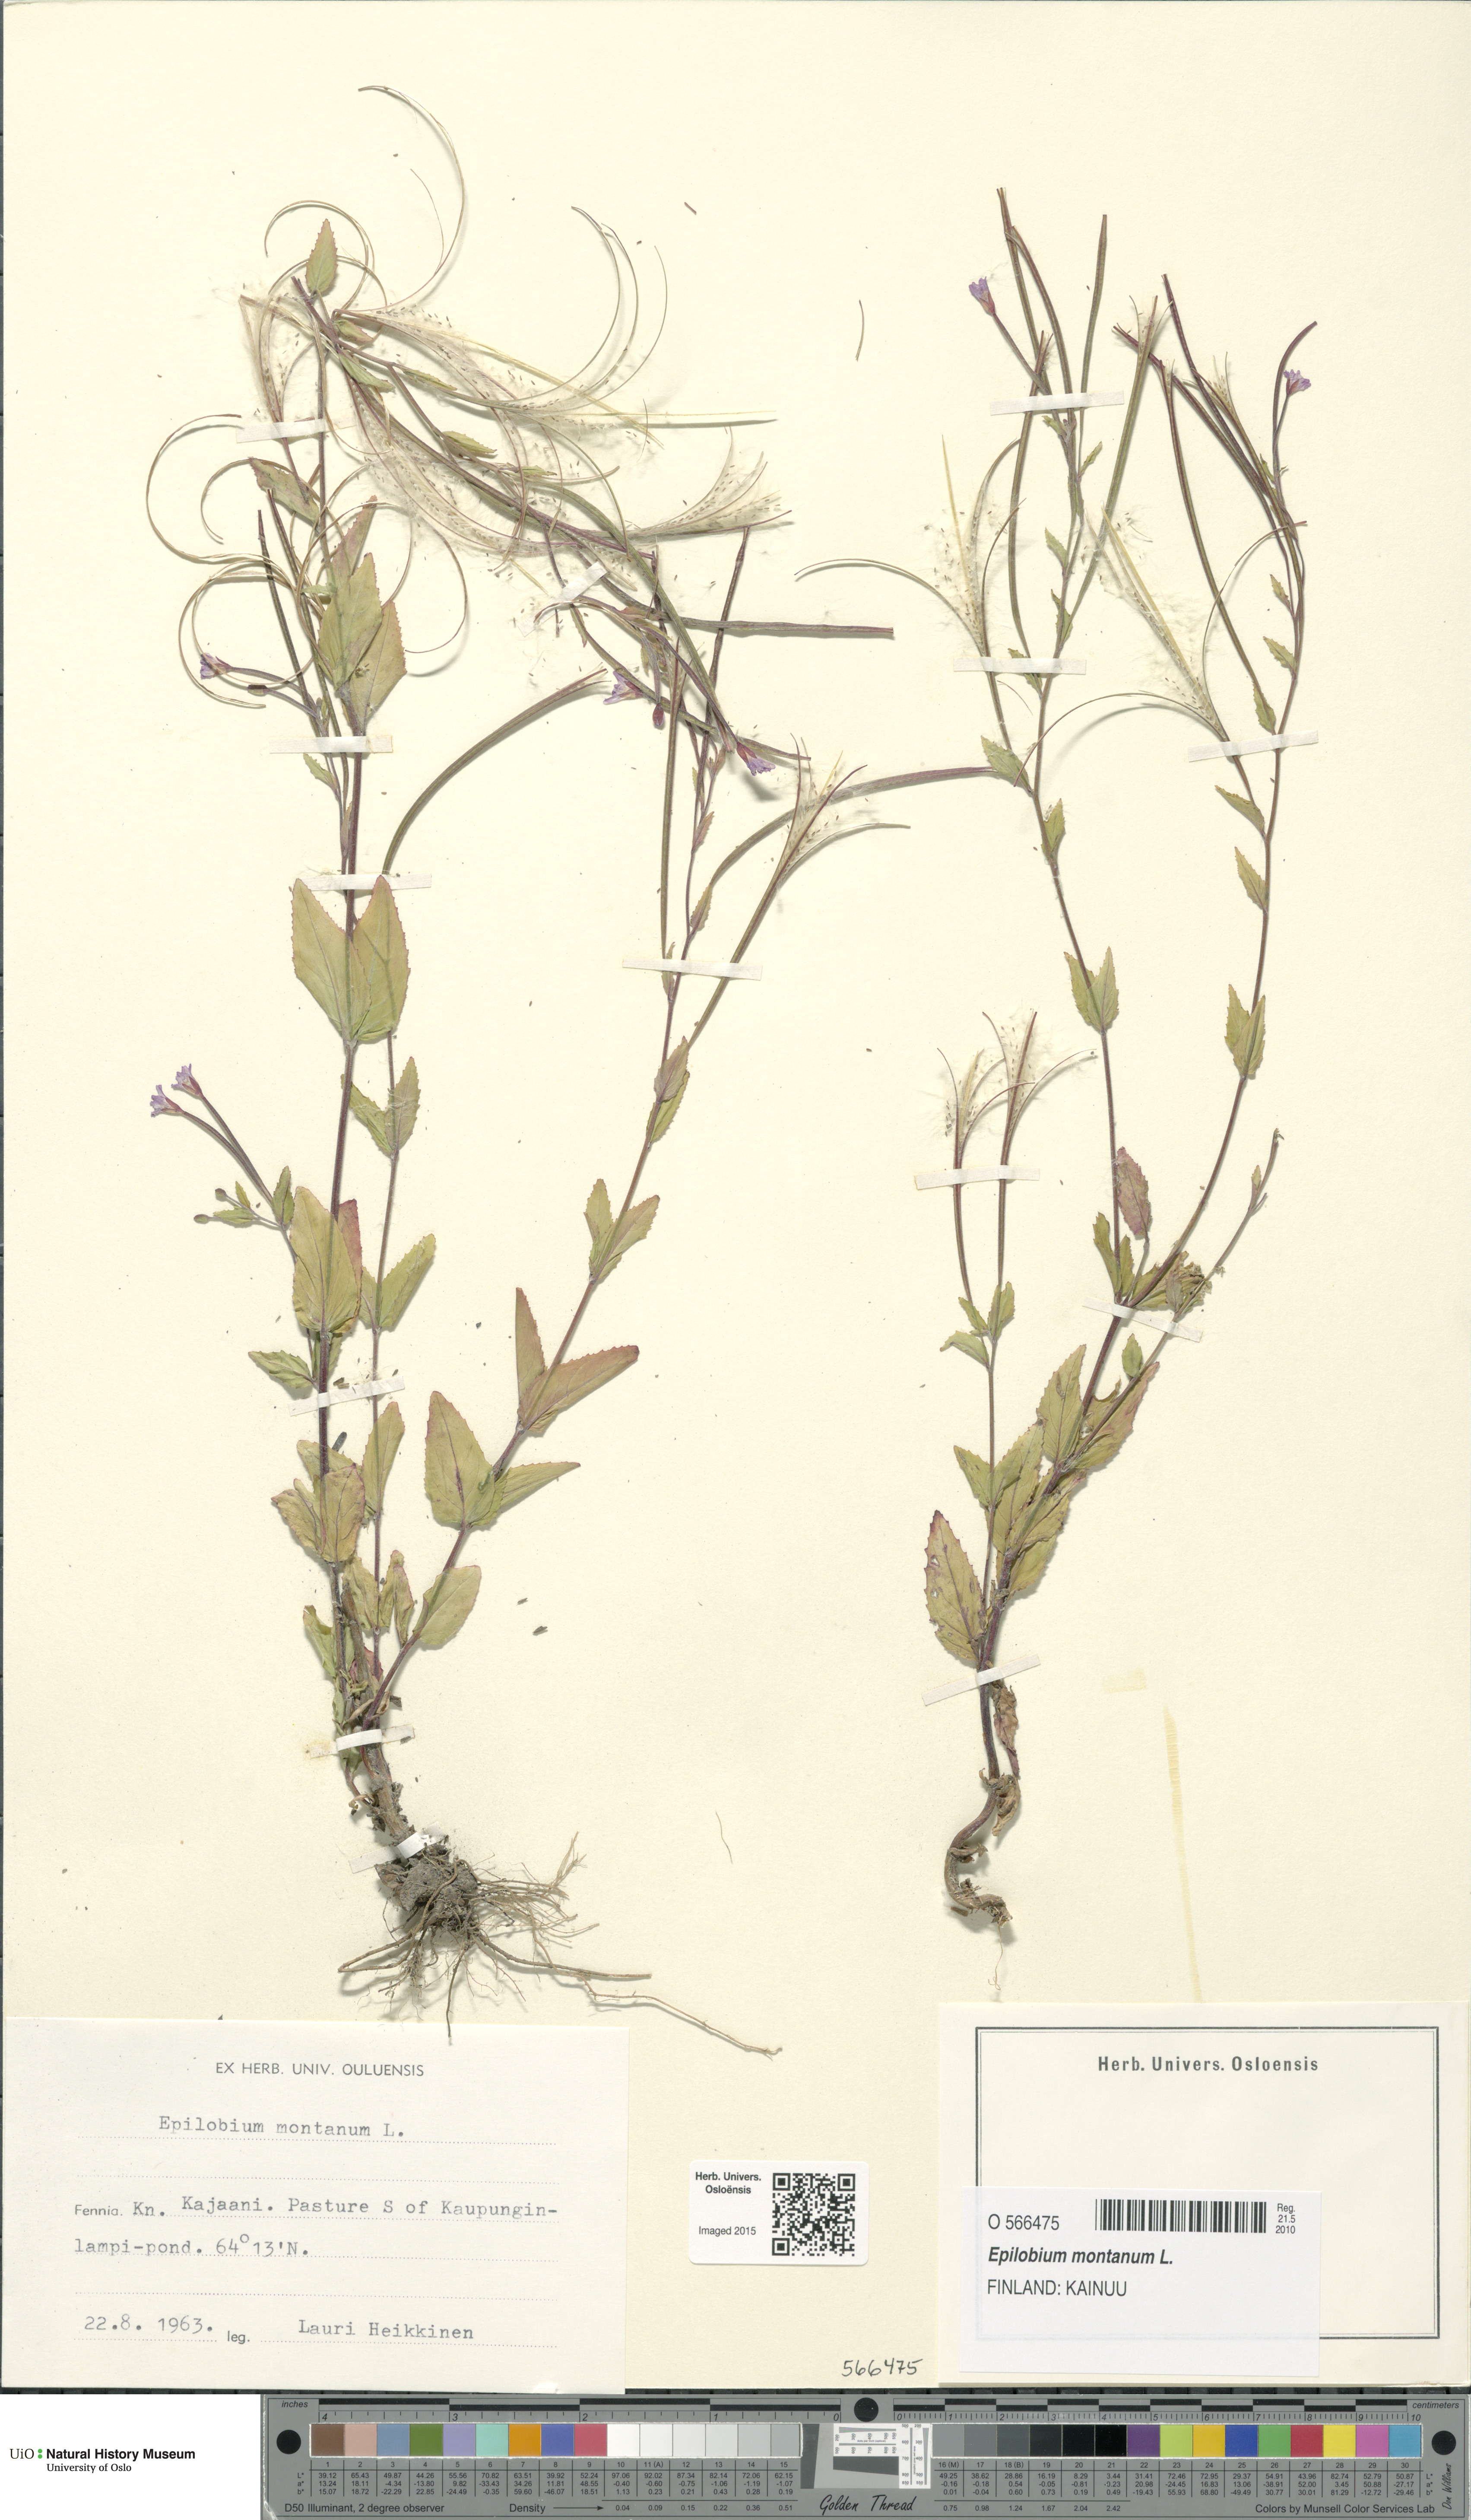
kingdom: Plantae
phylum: Tracheophyta
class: Magnoliopsida
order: Myrtales
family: Onagraceae
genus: Epilobium
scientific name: Epilobium montanum
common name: Broad-leaved willowherb
